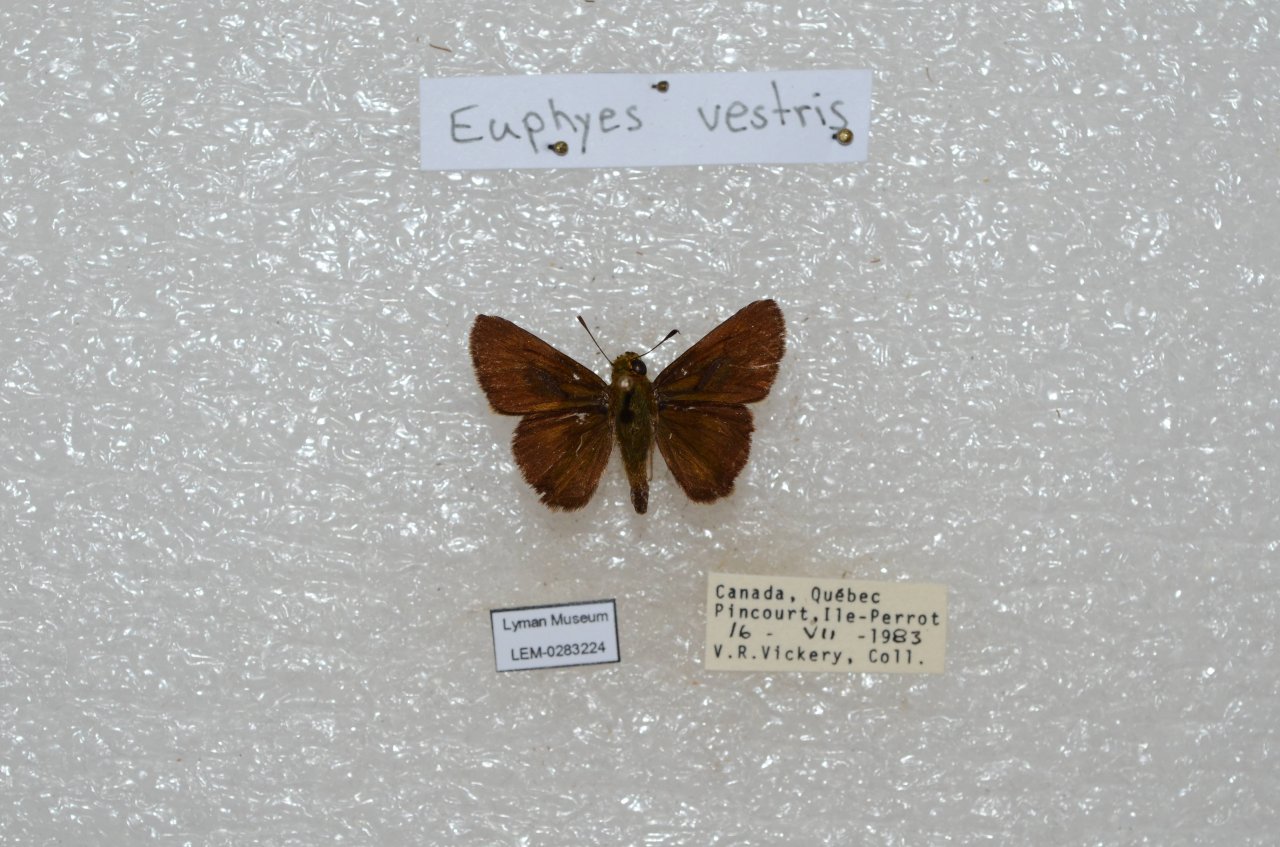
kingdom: Animalia
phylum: Arthropoda
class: Insecta
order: Lepidoptera
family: Hesperiidae
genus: Euphyes
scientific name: Euphyes vestris
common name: Dun Skipper
